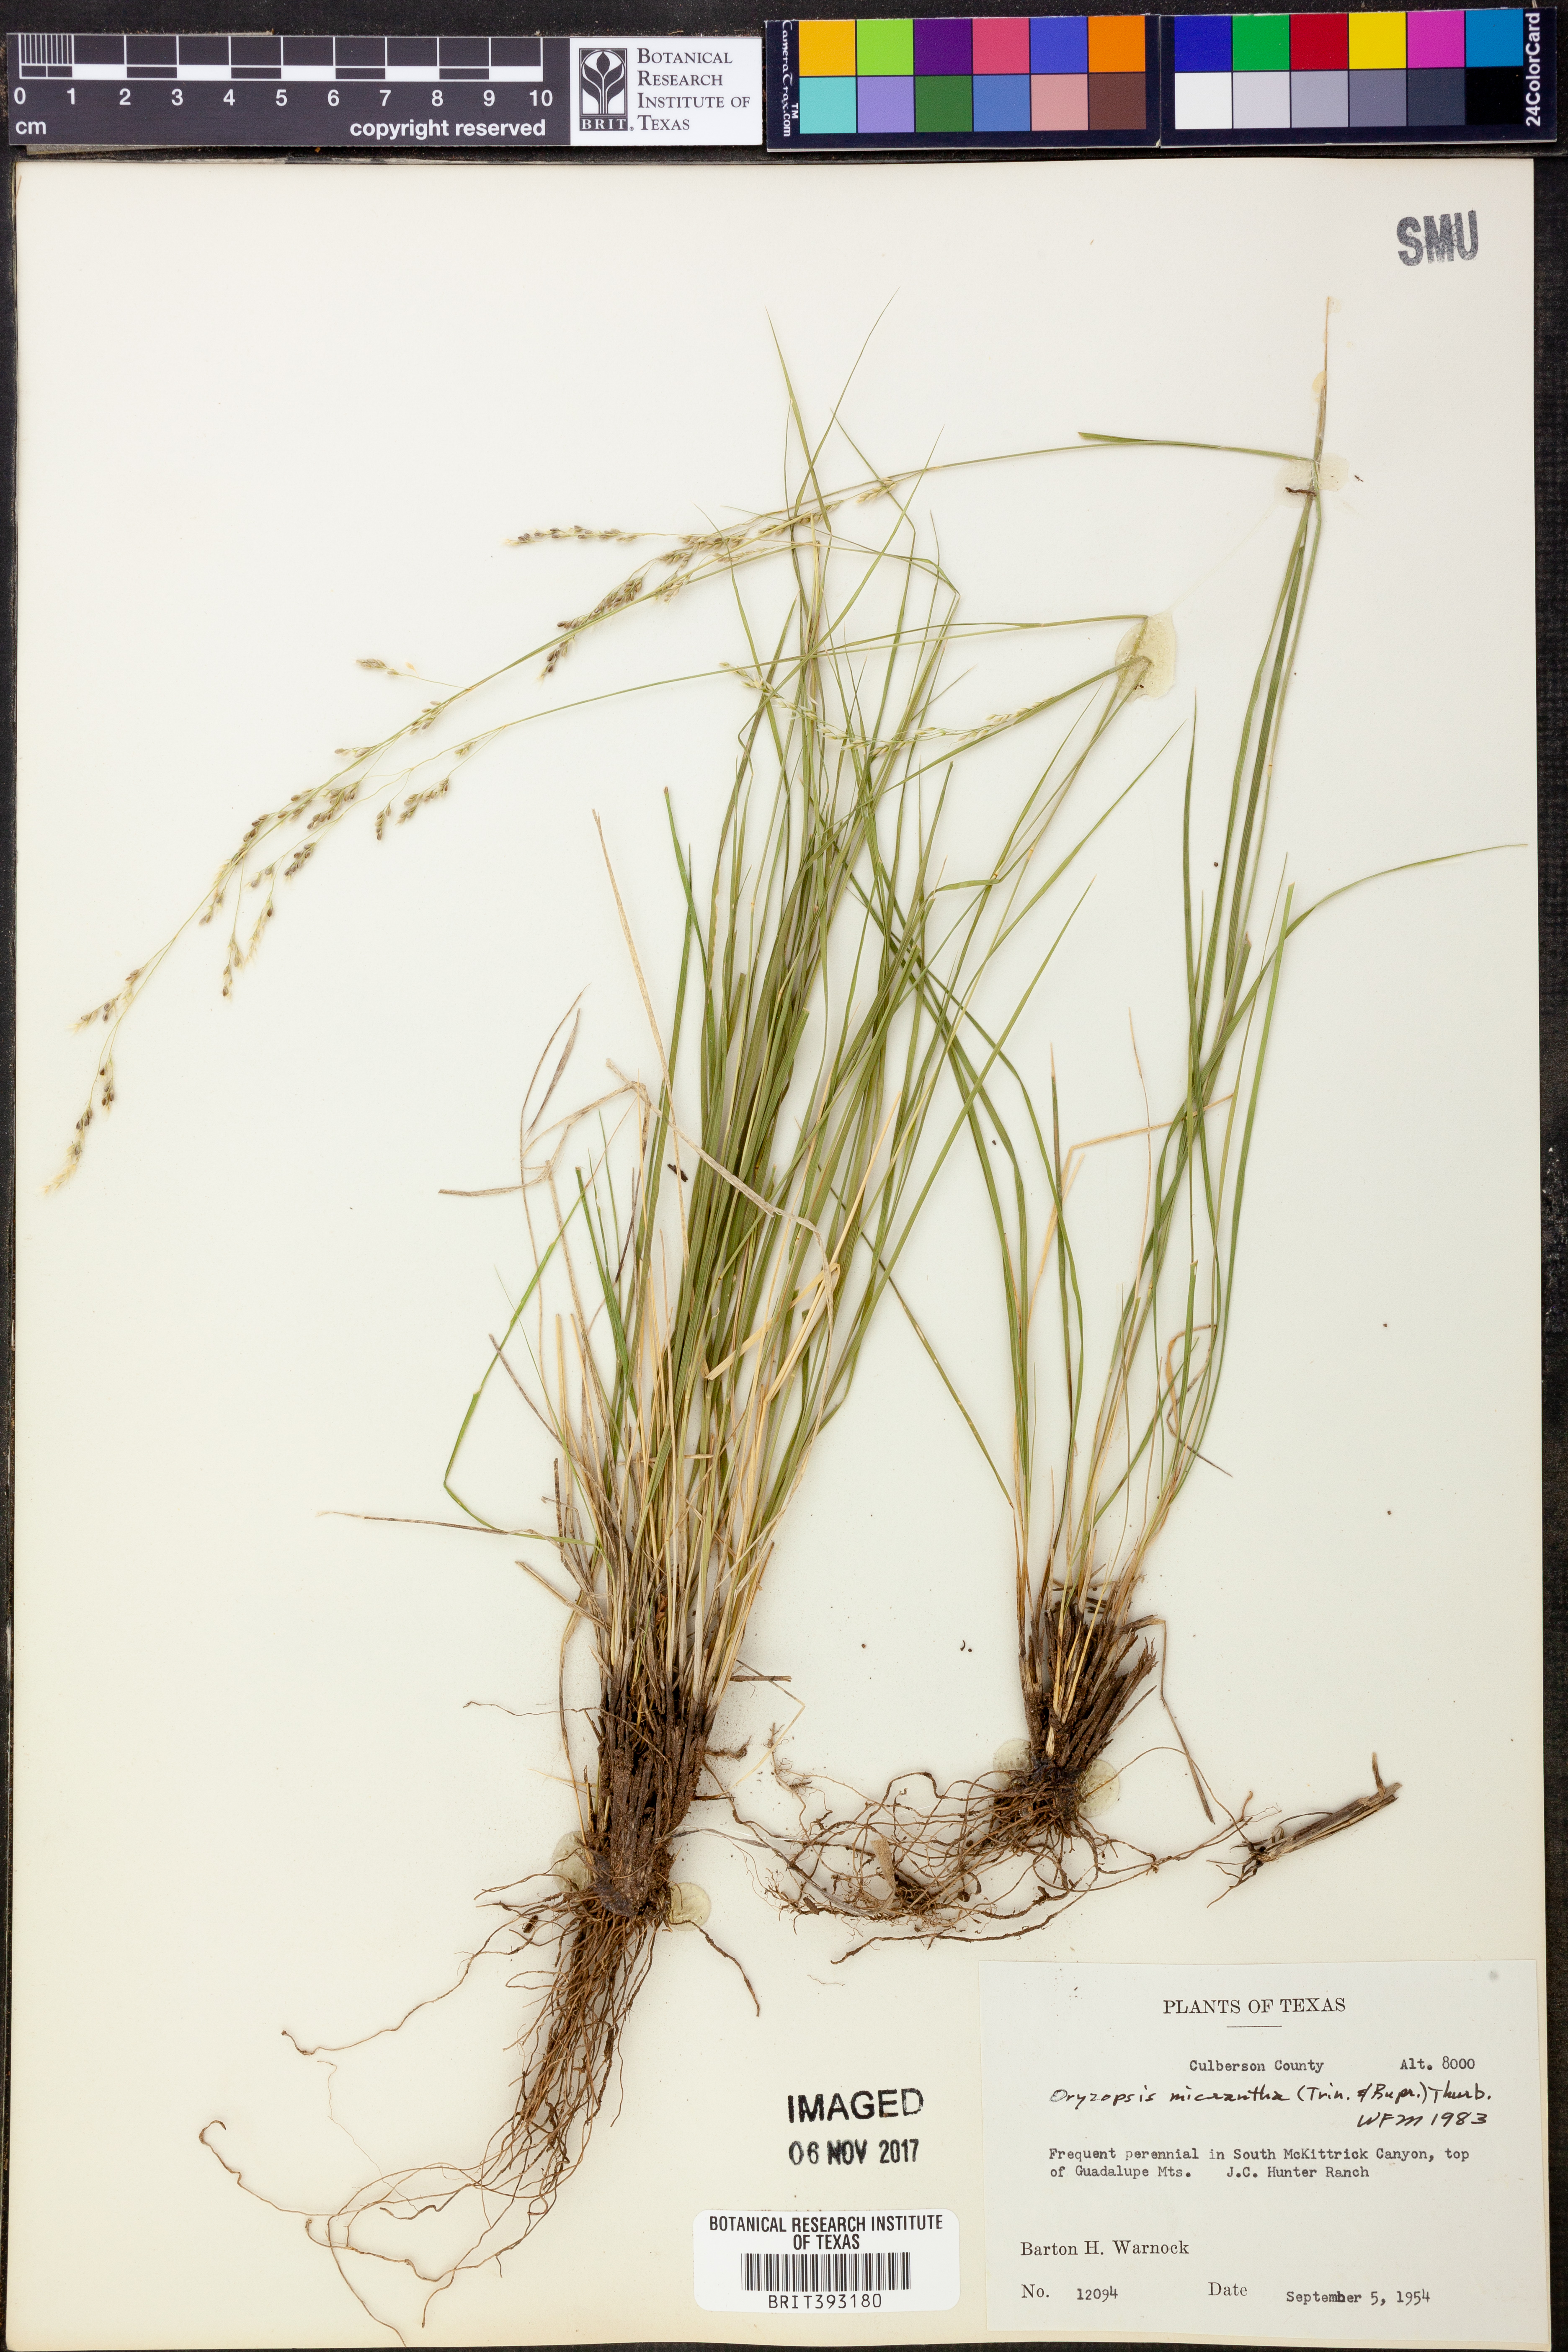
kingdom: Plantae
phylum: Tracheophyta
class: Liliopsida
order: Poales
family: Poaceae
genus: Piptatheropsis
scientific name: Piptatheropsis micrantha
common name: Little-seed mountain ricegrass
